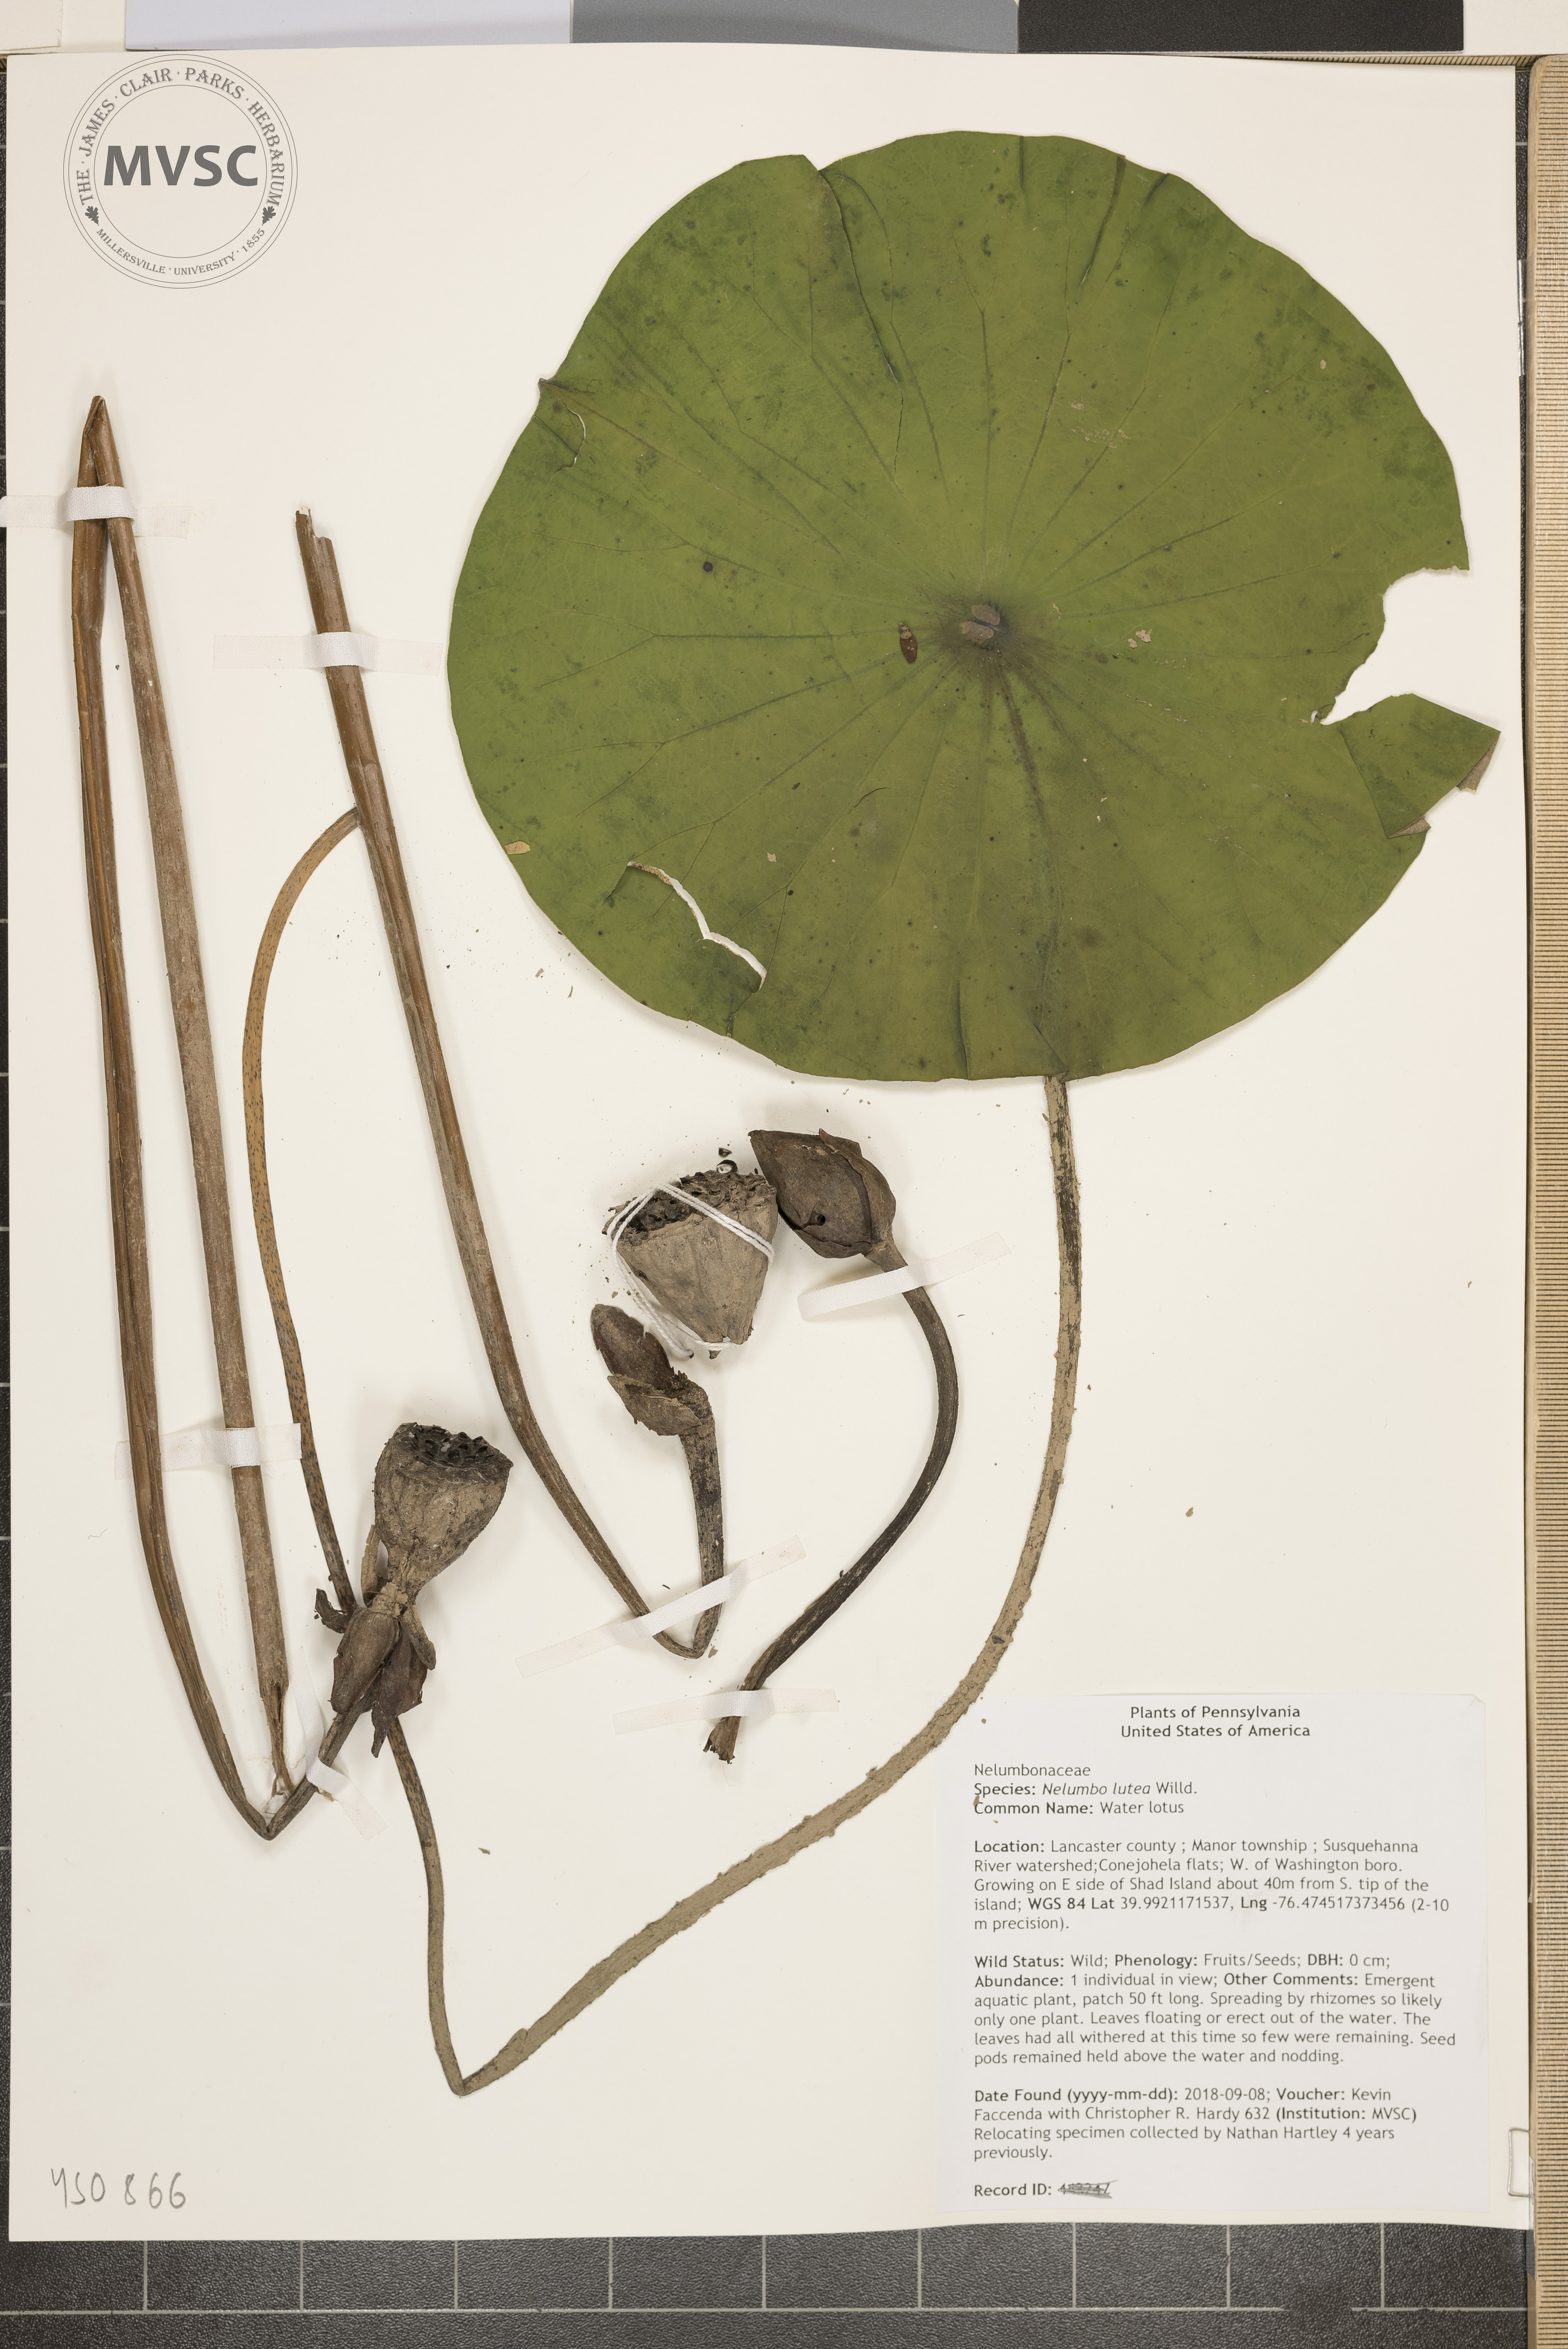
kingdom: Plantae
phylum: Tracheophyta
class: Magnoliopsida
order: Proteales
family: Nelumbonaceae
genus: Nelumbo
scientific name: Nelumbo lutea
